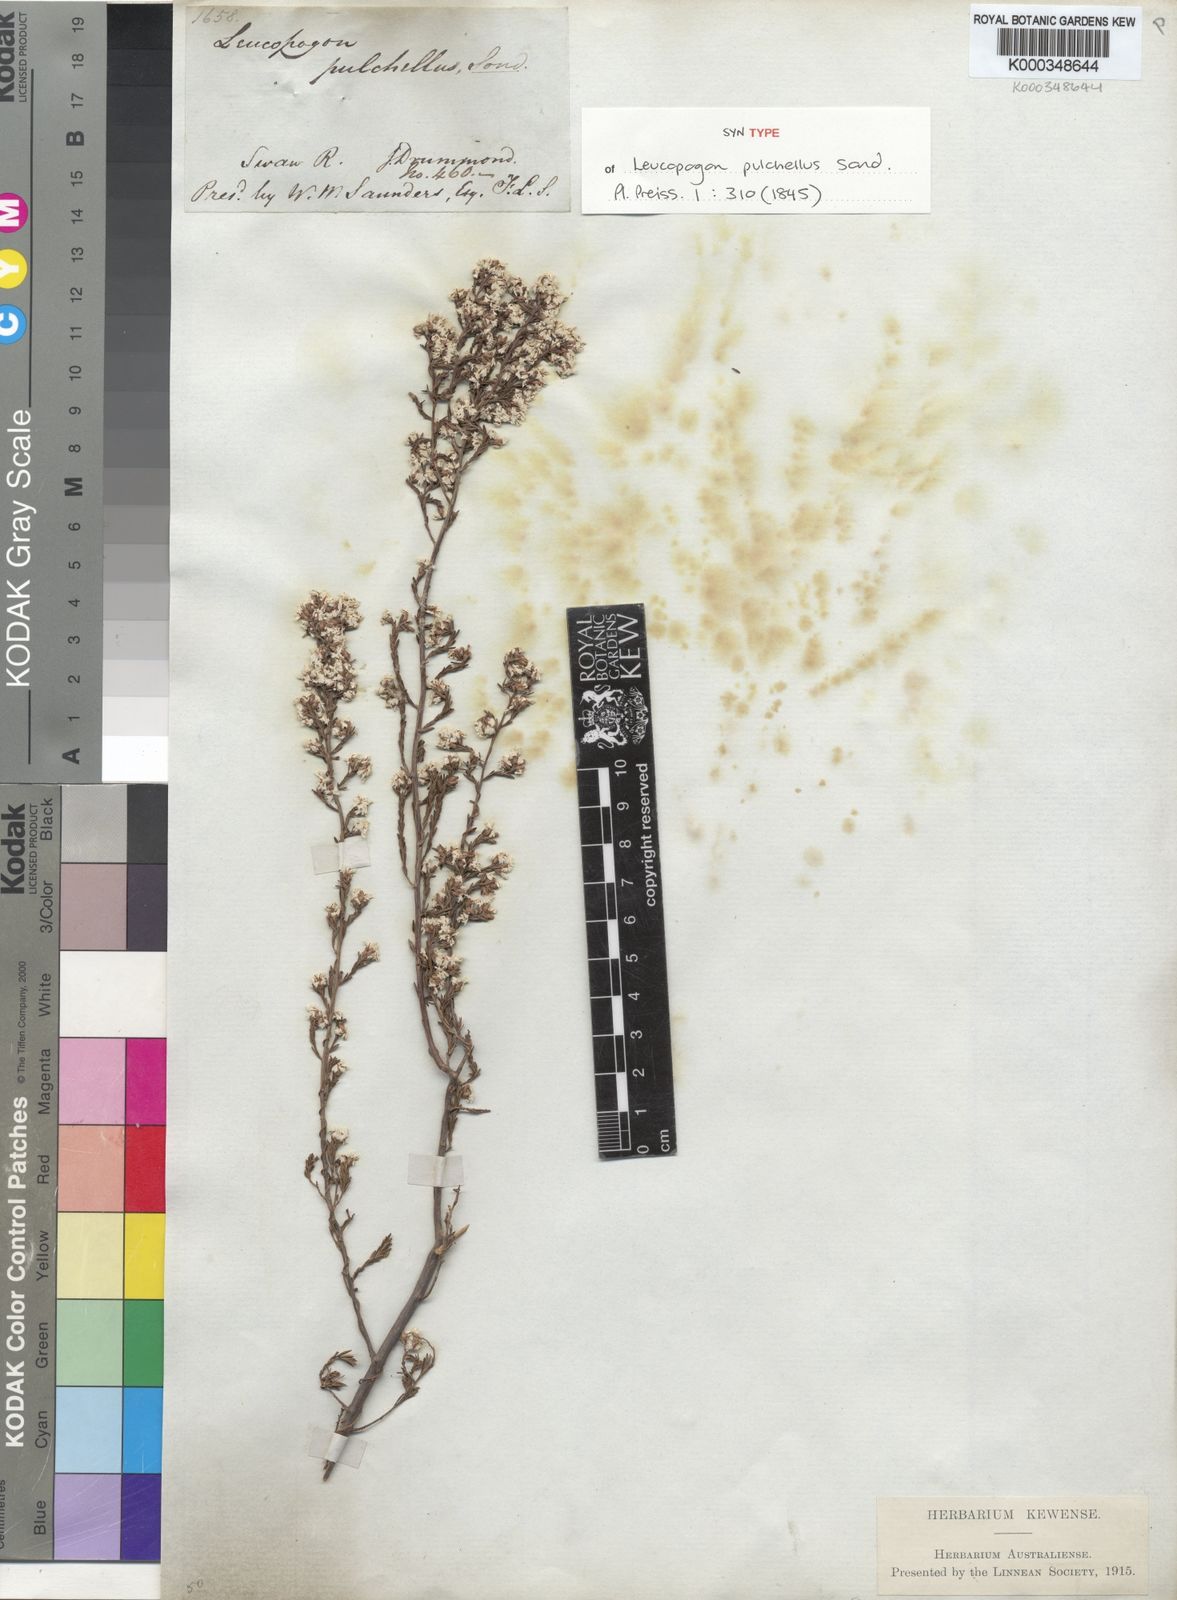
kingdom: Plantae
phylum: Tracheophyta
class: Magnoliopsida
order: Ericales
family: Ericaceae
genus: Leucopogon
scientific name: Leucopogon pulchellus
